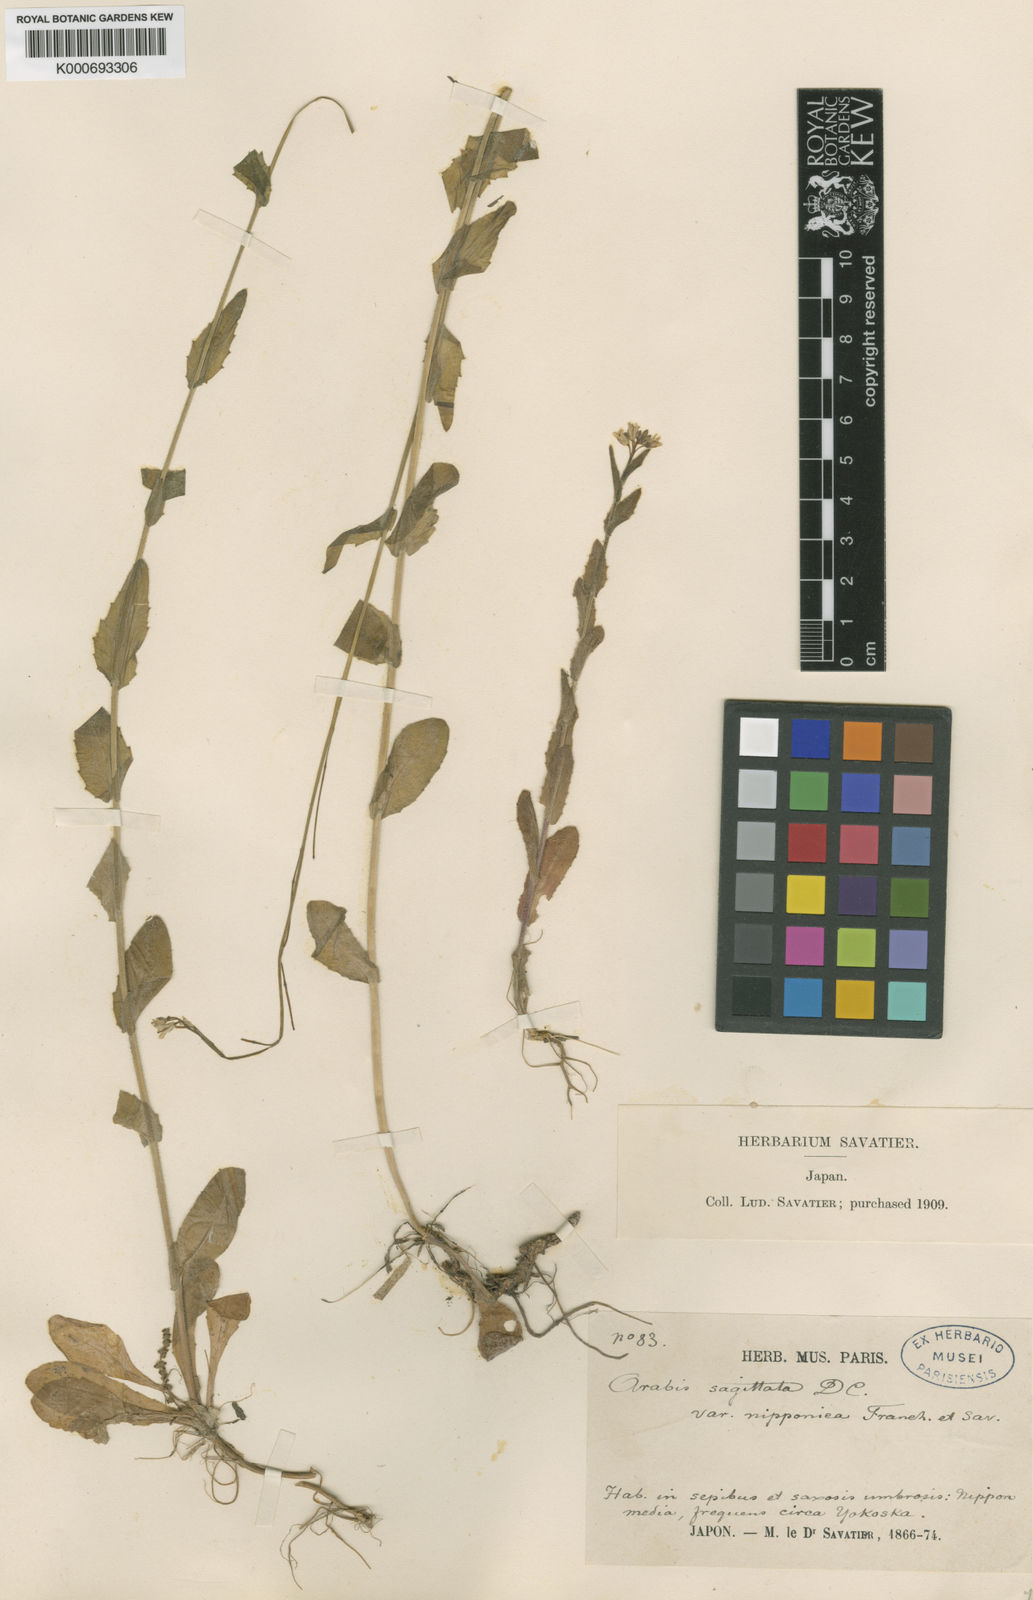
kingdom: Plantae
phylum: Tracheophyta
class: Magnoliopsida
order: Brassicales
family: Brassicaceae
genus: Arabis
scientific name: Arabis sagittata
